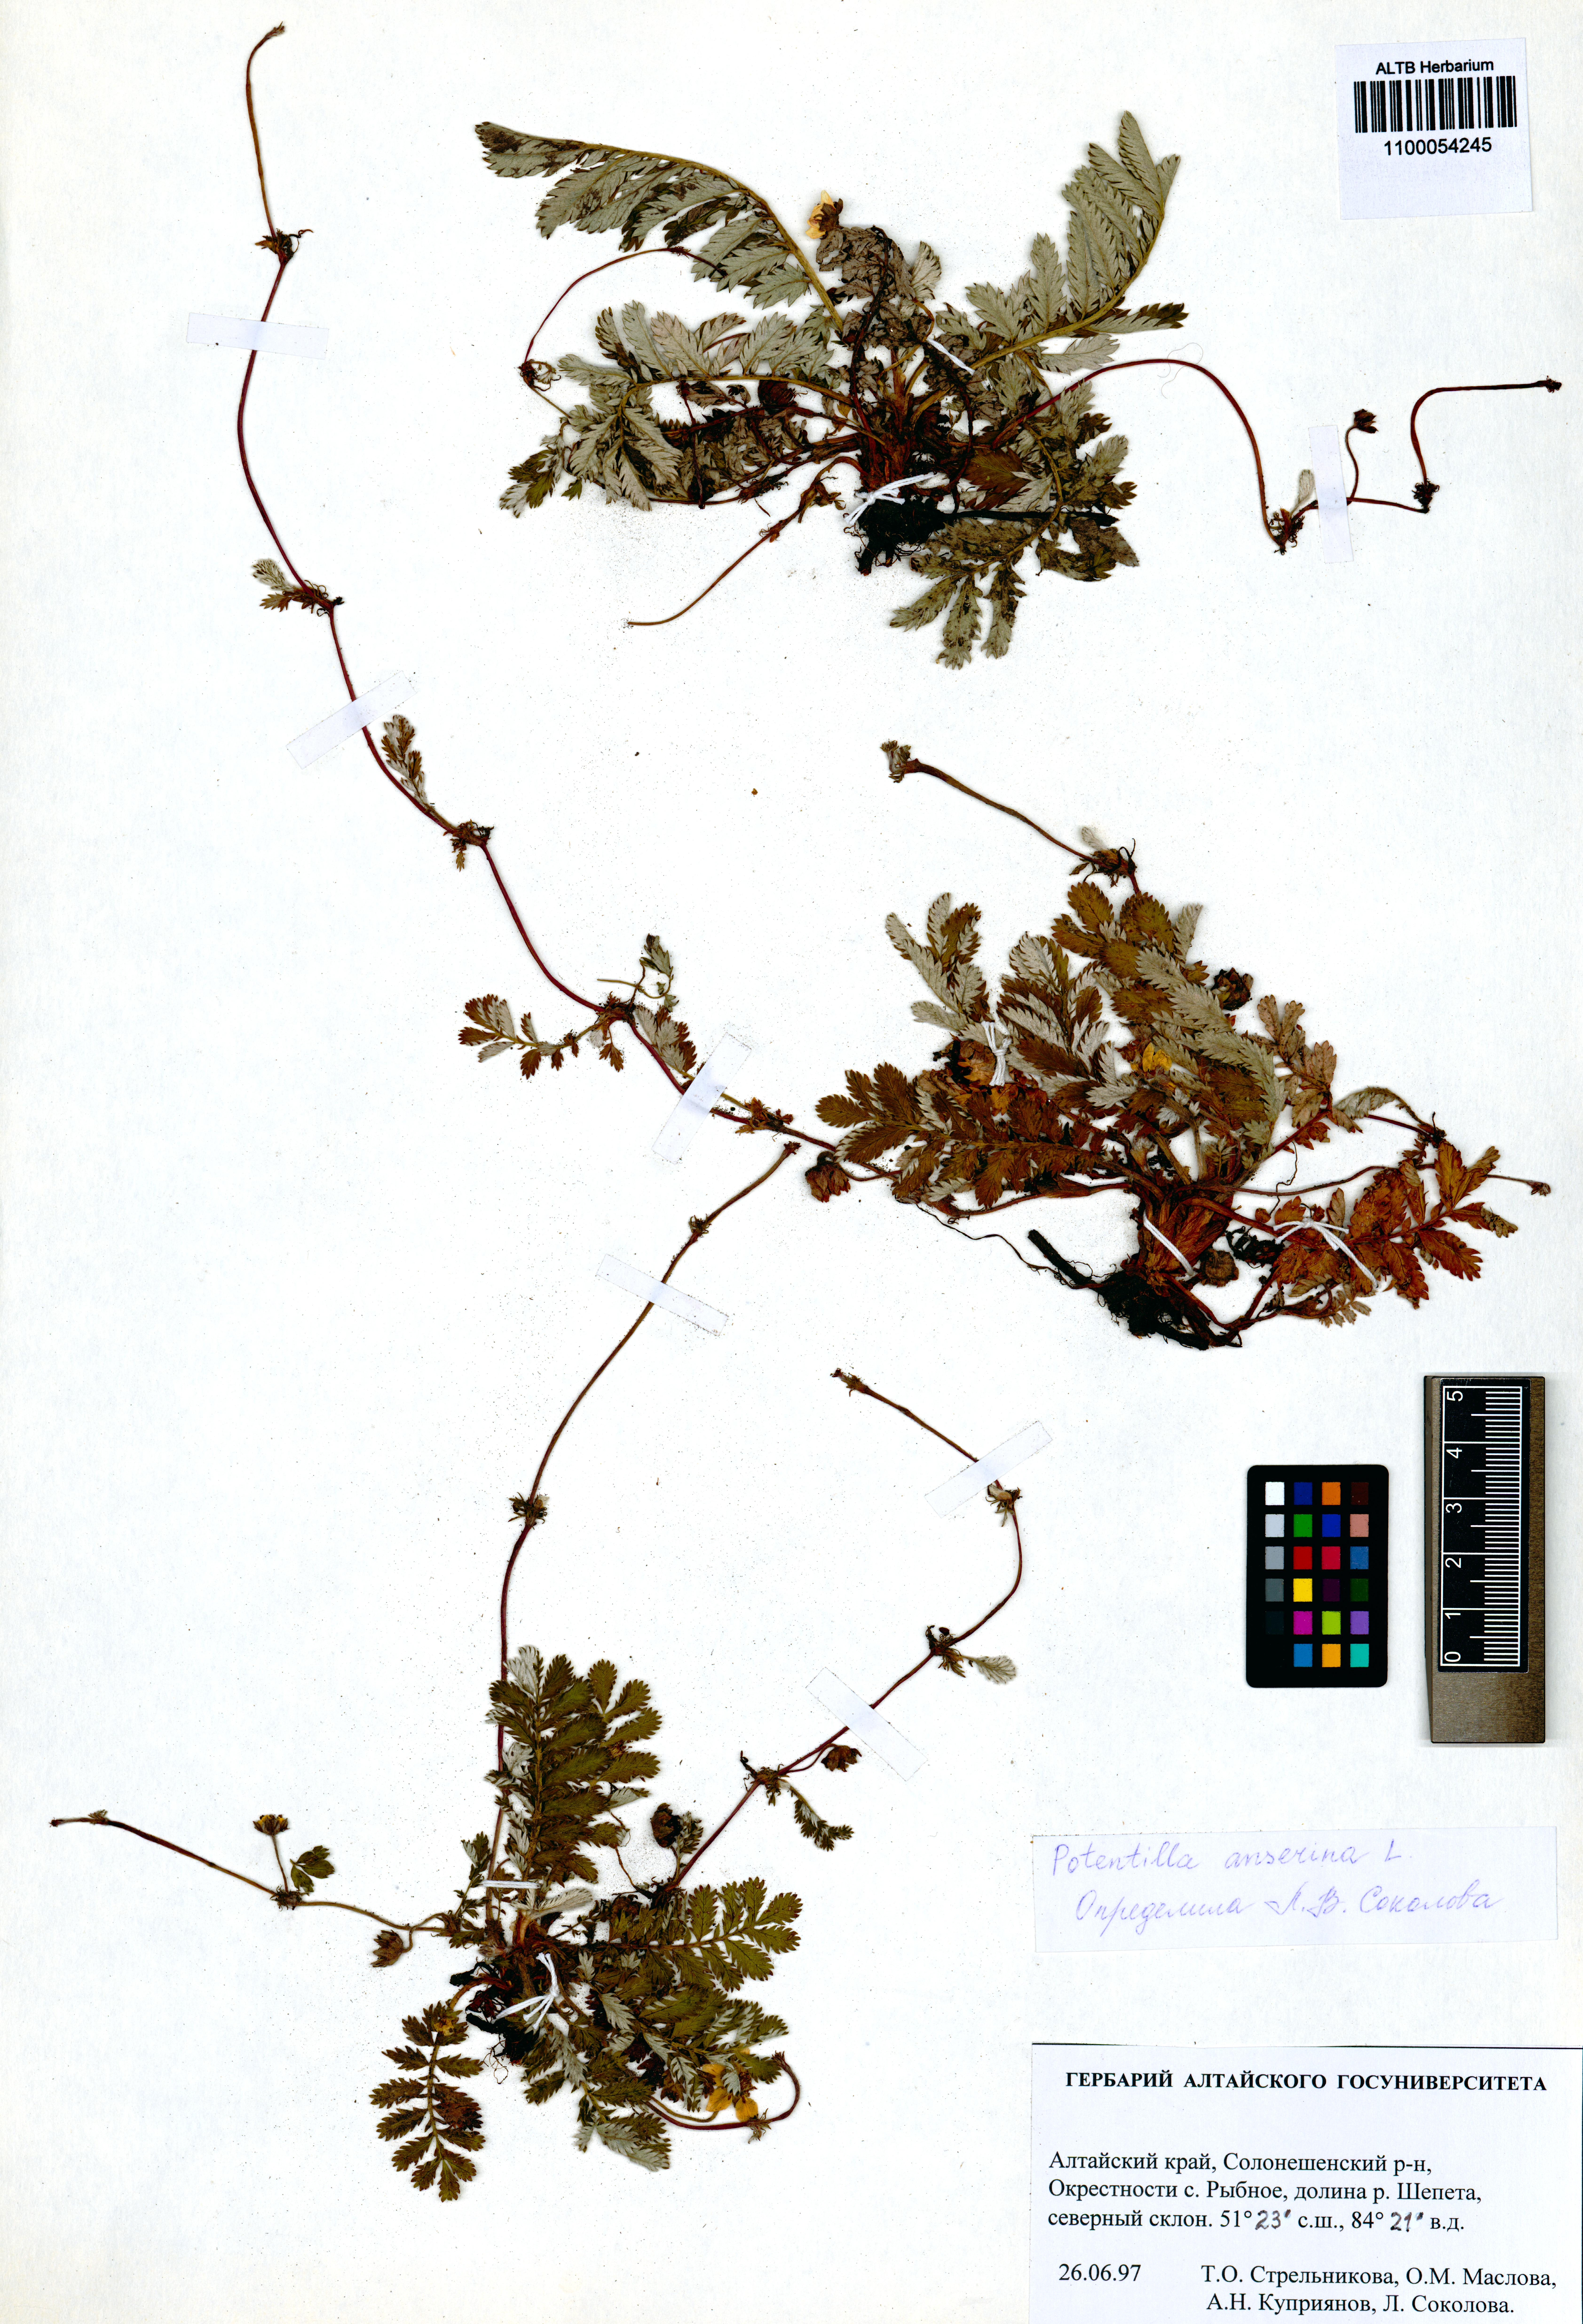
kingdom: Plantae
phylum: Tracheophyta
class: Magnoliopsida
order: Rosales
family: Rosaceae
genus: Argentina
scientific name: Argentina anserina
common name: Common silverweed
